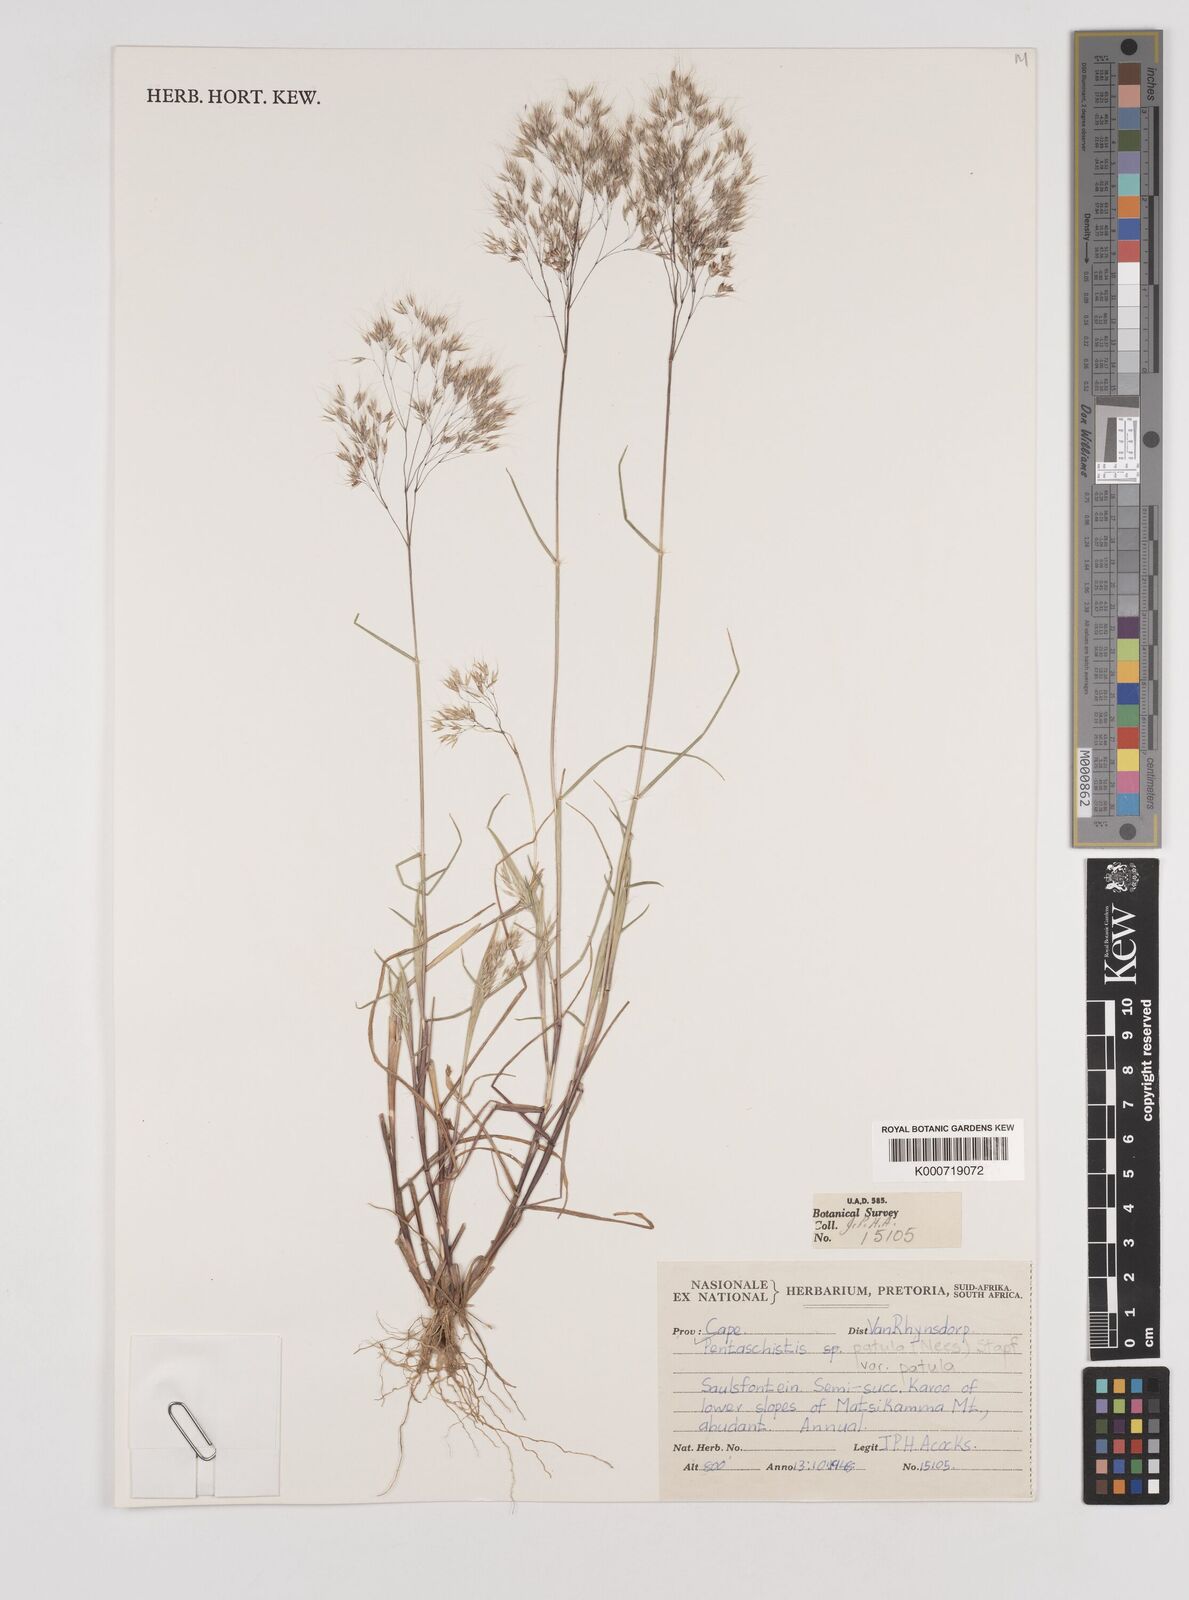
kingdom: Plantae
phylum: Tracheophyta
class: Liliopsida
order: Poales
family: Poaceae
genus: Pentameris
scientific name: Pentameris patula
